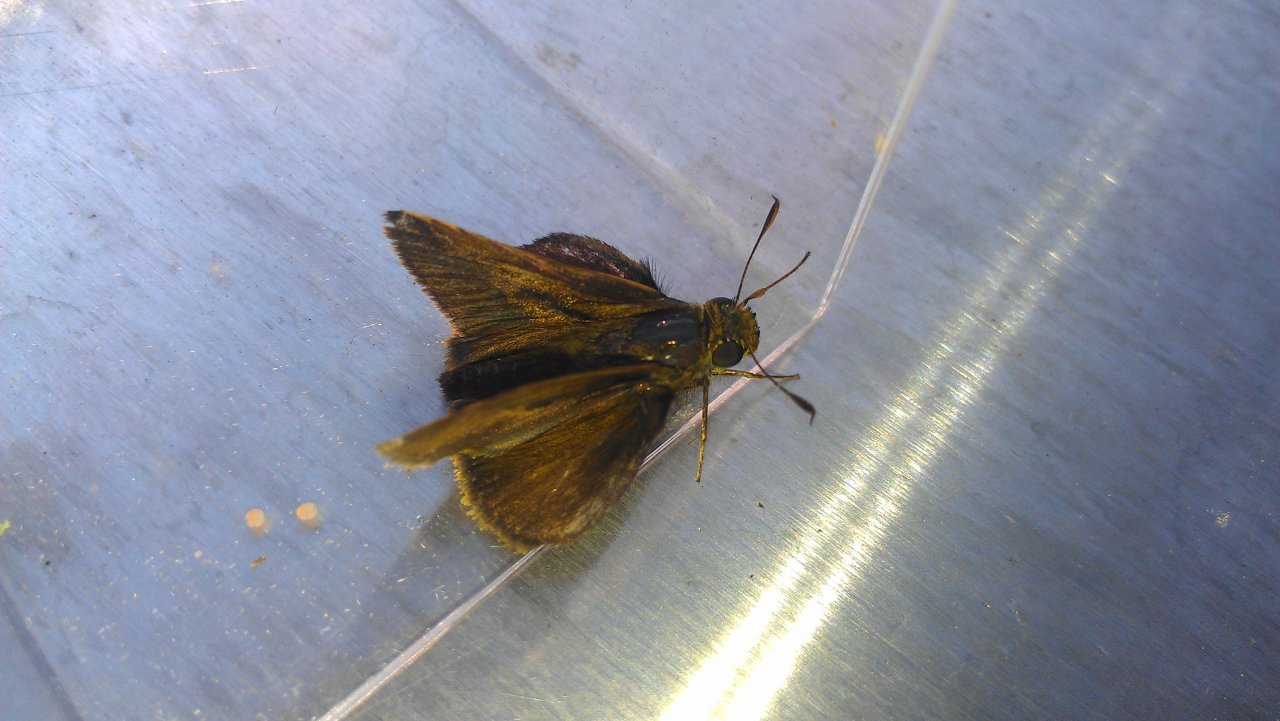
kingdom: Animalia
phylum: Arthropoda
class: Insecta
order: Lepidoptera
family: Hesperiidae
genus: Euphyes
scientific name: Euphyes vestris
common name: Dun Skipper
